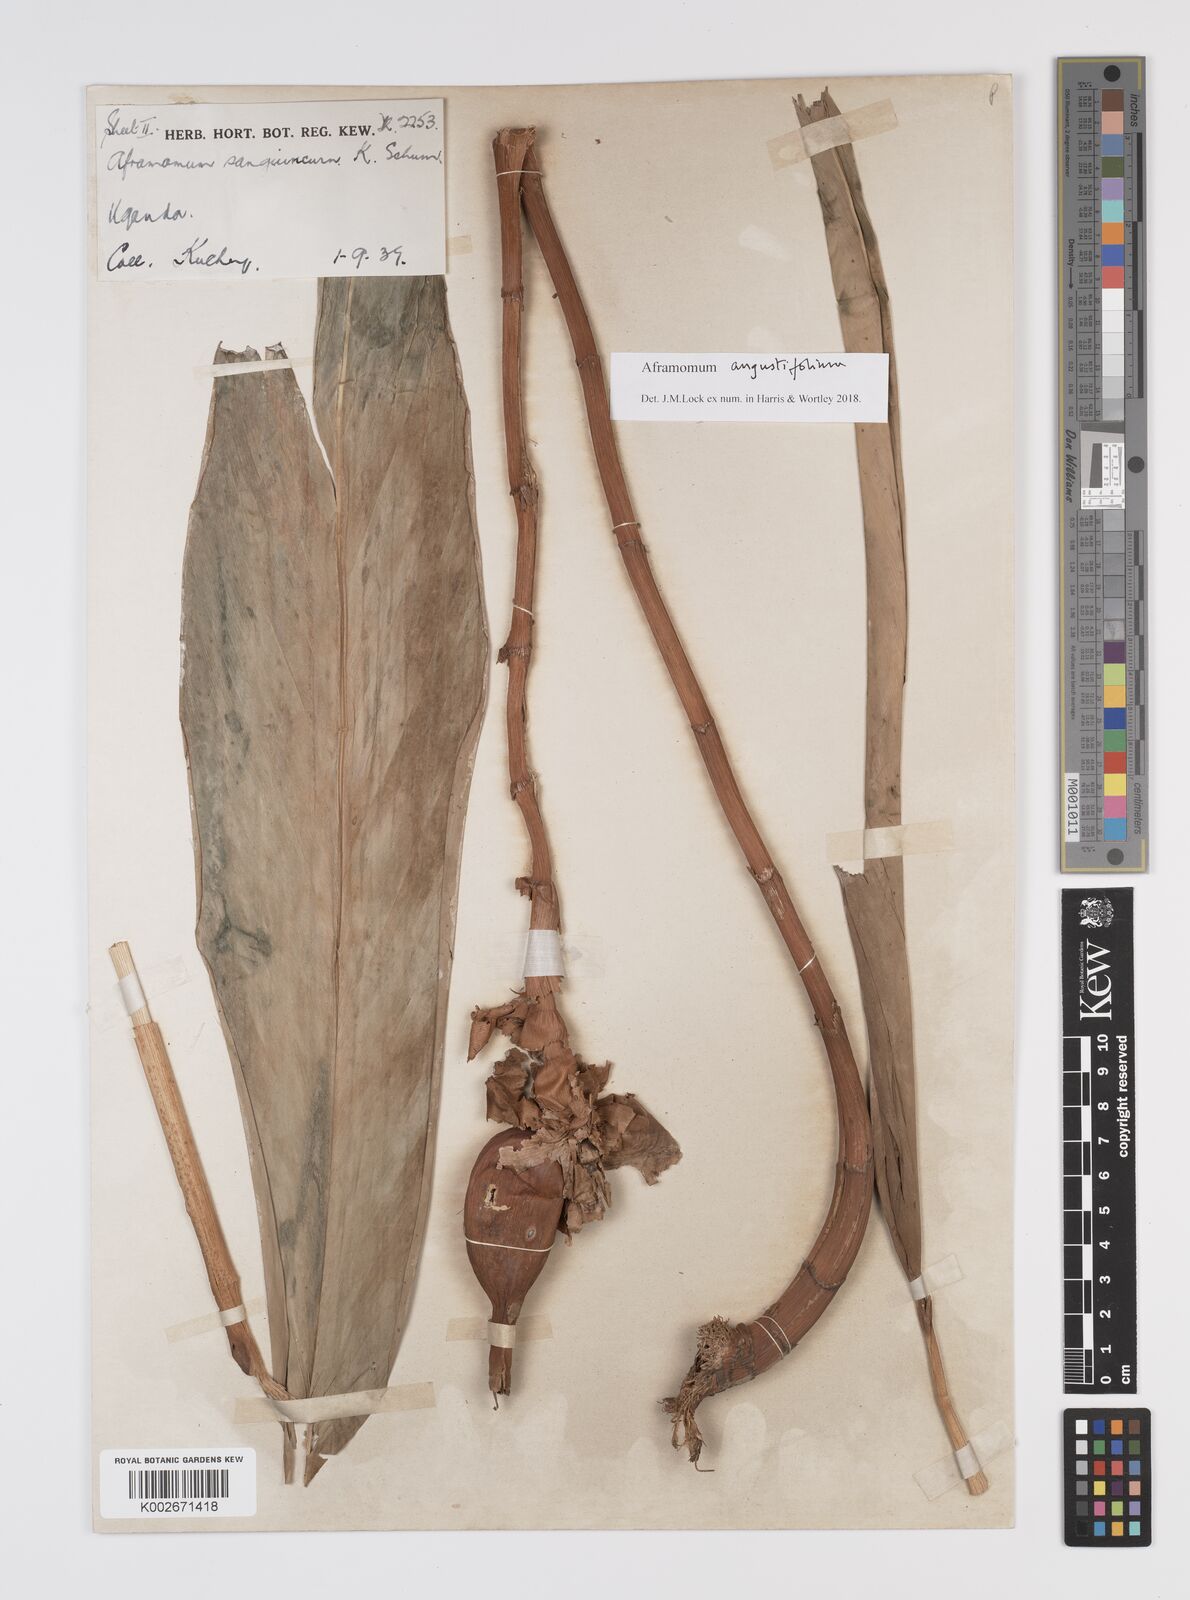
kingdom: Plantae
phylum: Tracheophyta
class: Liliopsida
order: Zingiberales
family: Zingiberaceae
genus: Aframomum
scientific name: Aframomum angustifolium
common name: Guinea grains
